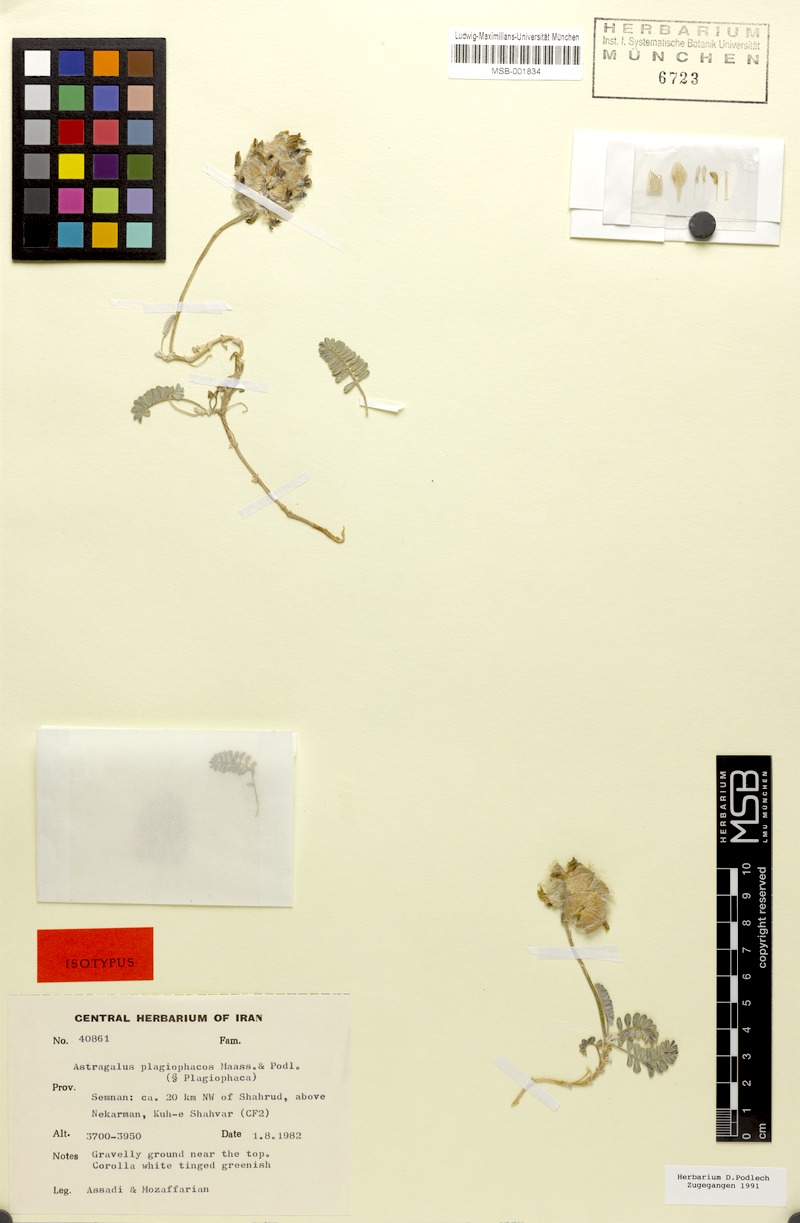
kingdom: Plantae
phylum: Tracheophyta
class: Magnoliopsida
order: Fabales
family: Fabaceae
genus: Astragalus
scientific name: Astragalus plagiophacos
